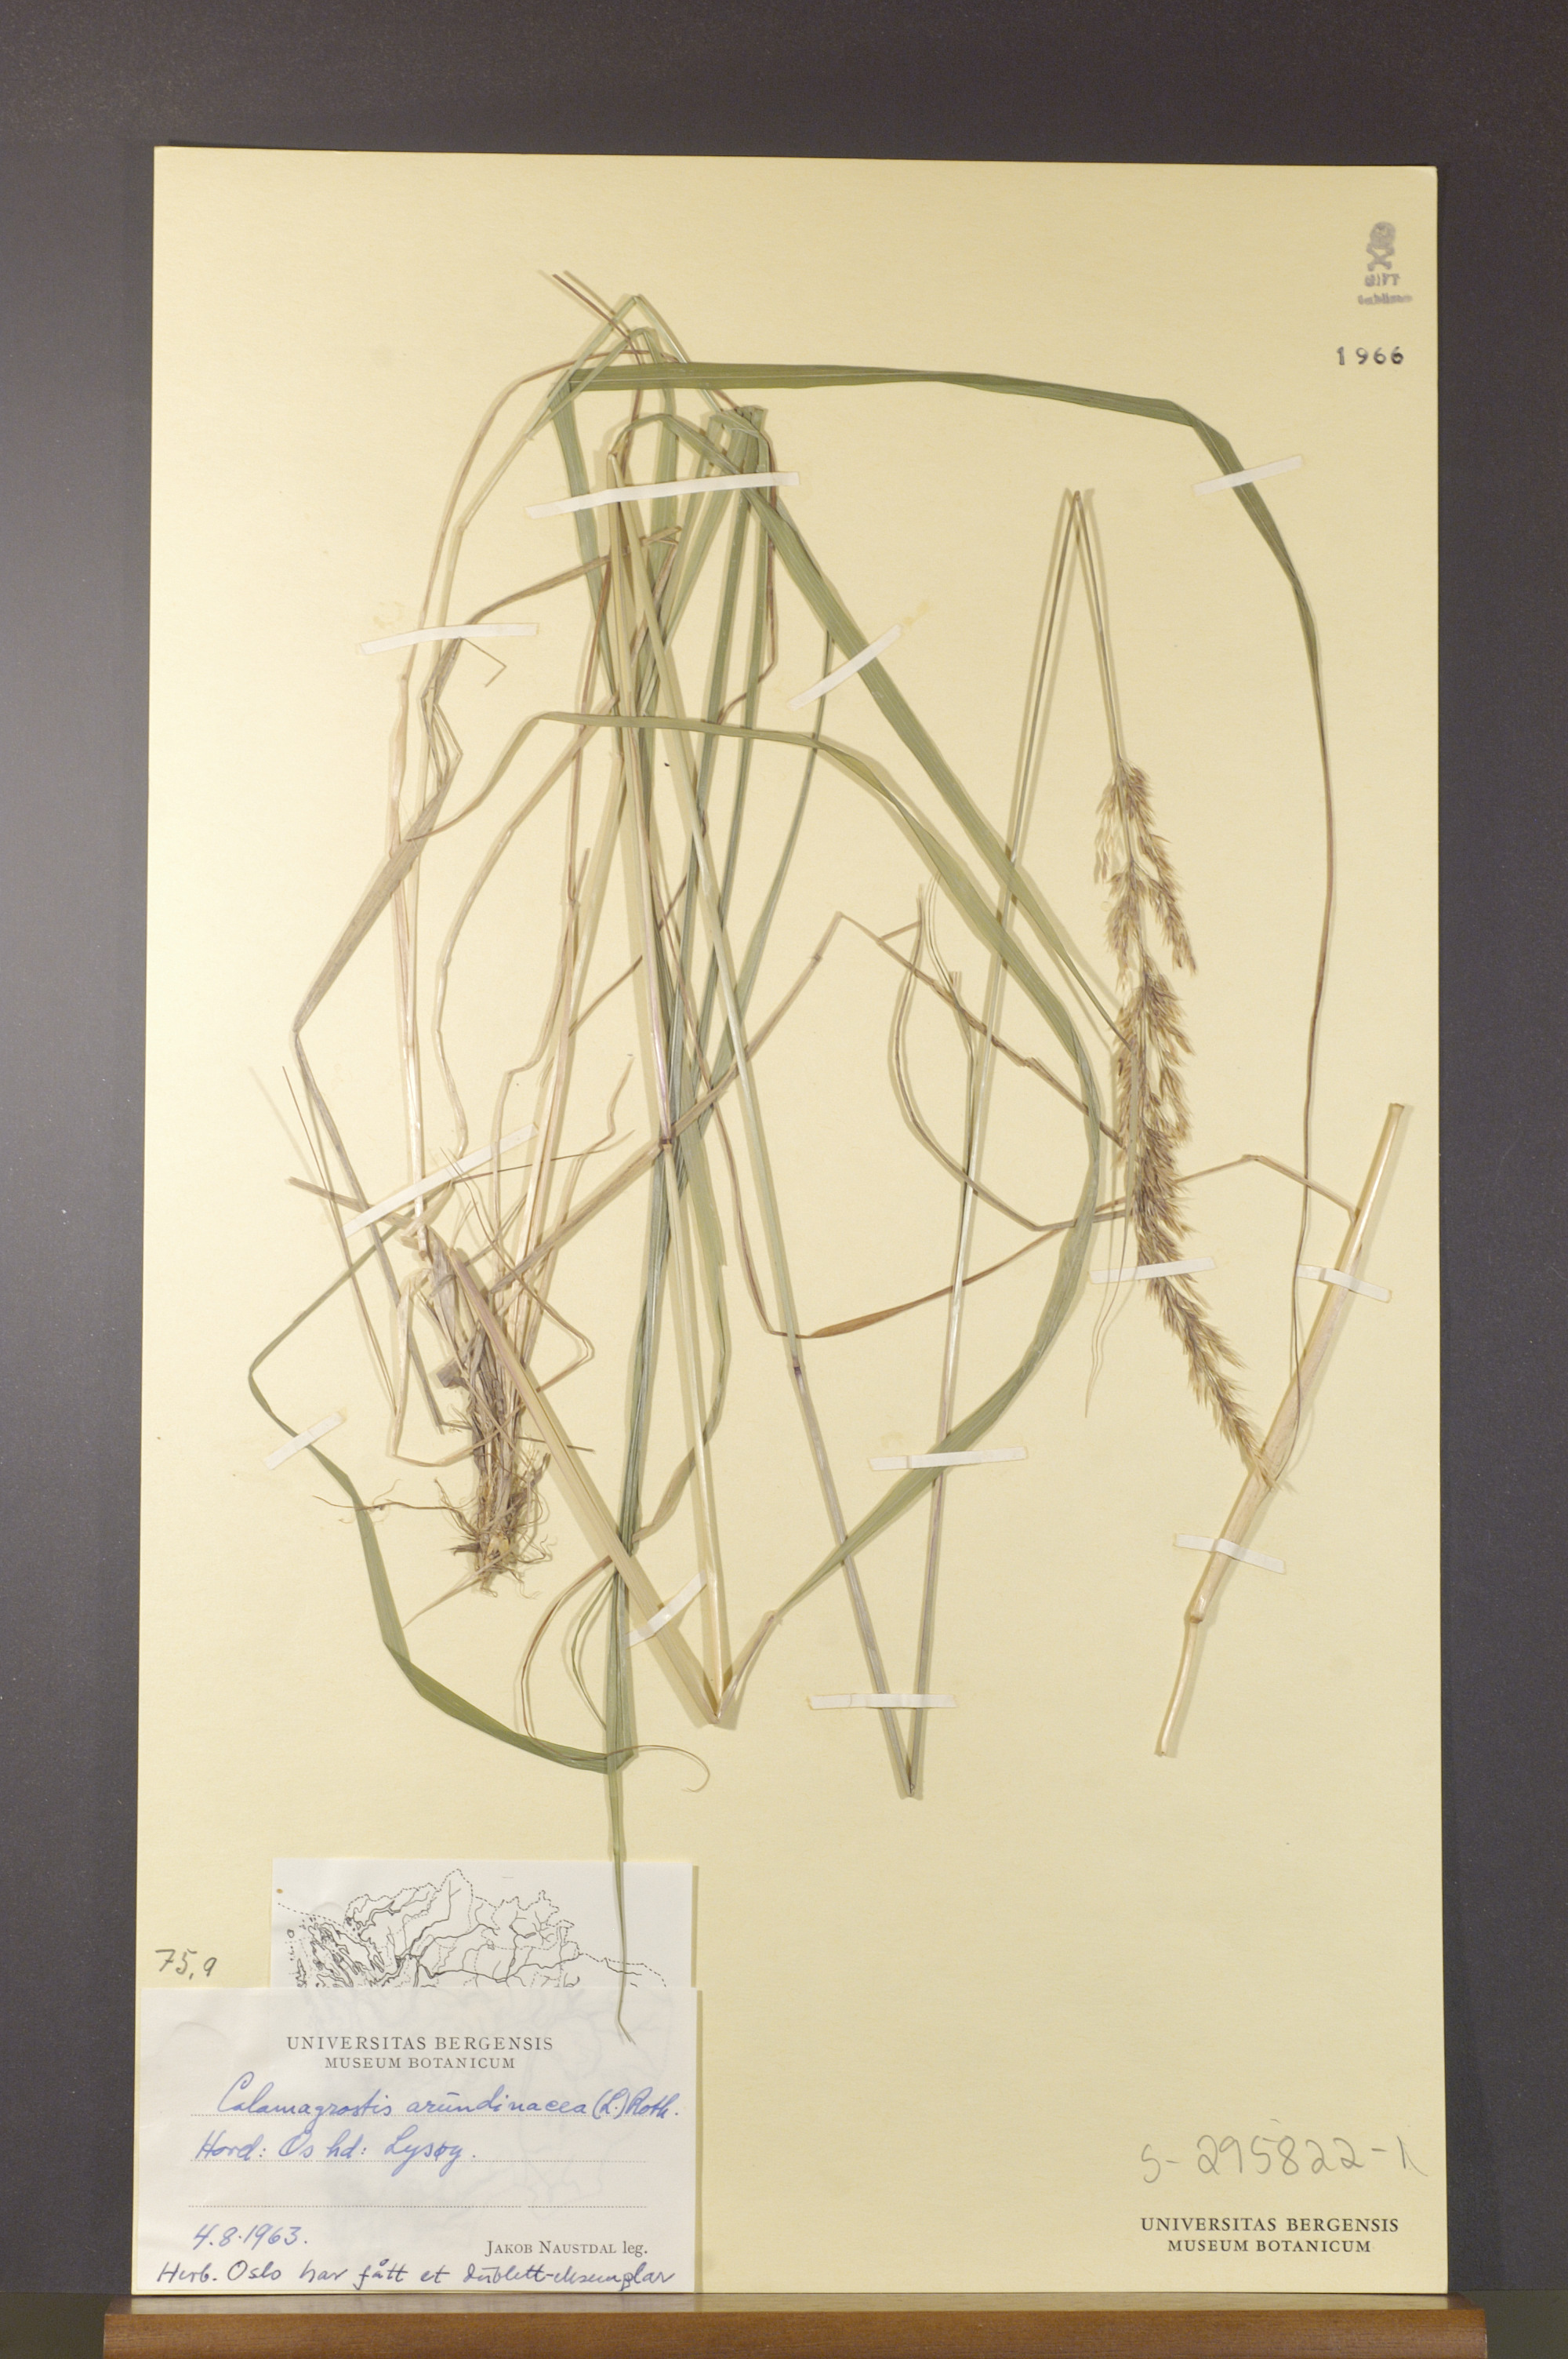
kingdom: Plantae
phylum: Tracheophyta
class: Liliopsida
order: Poales
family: Poaceae
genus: Calamagrostis
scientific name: Calamagrostis arundinacea
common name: Metskastik
